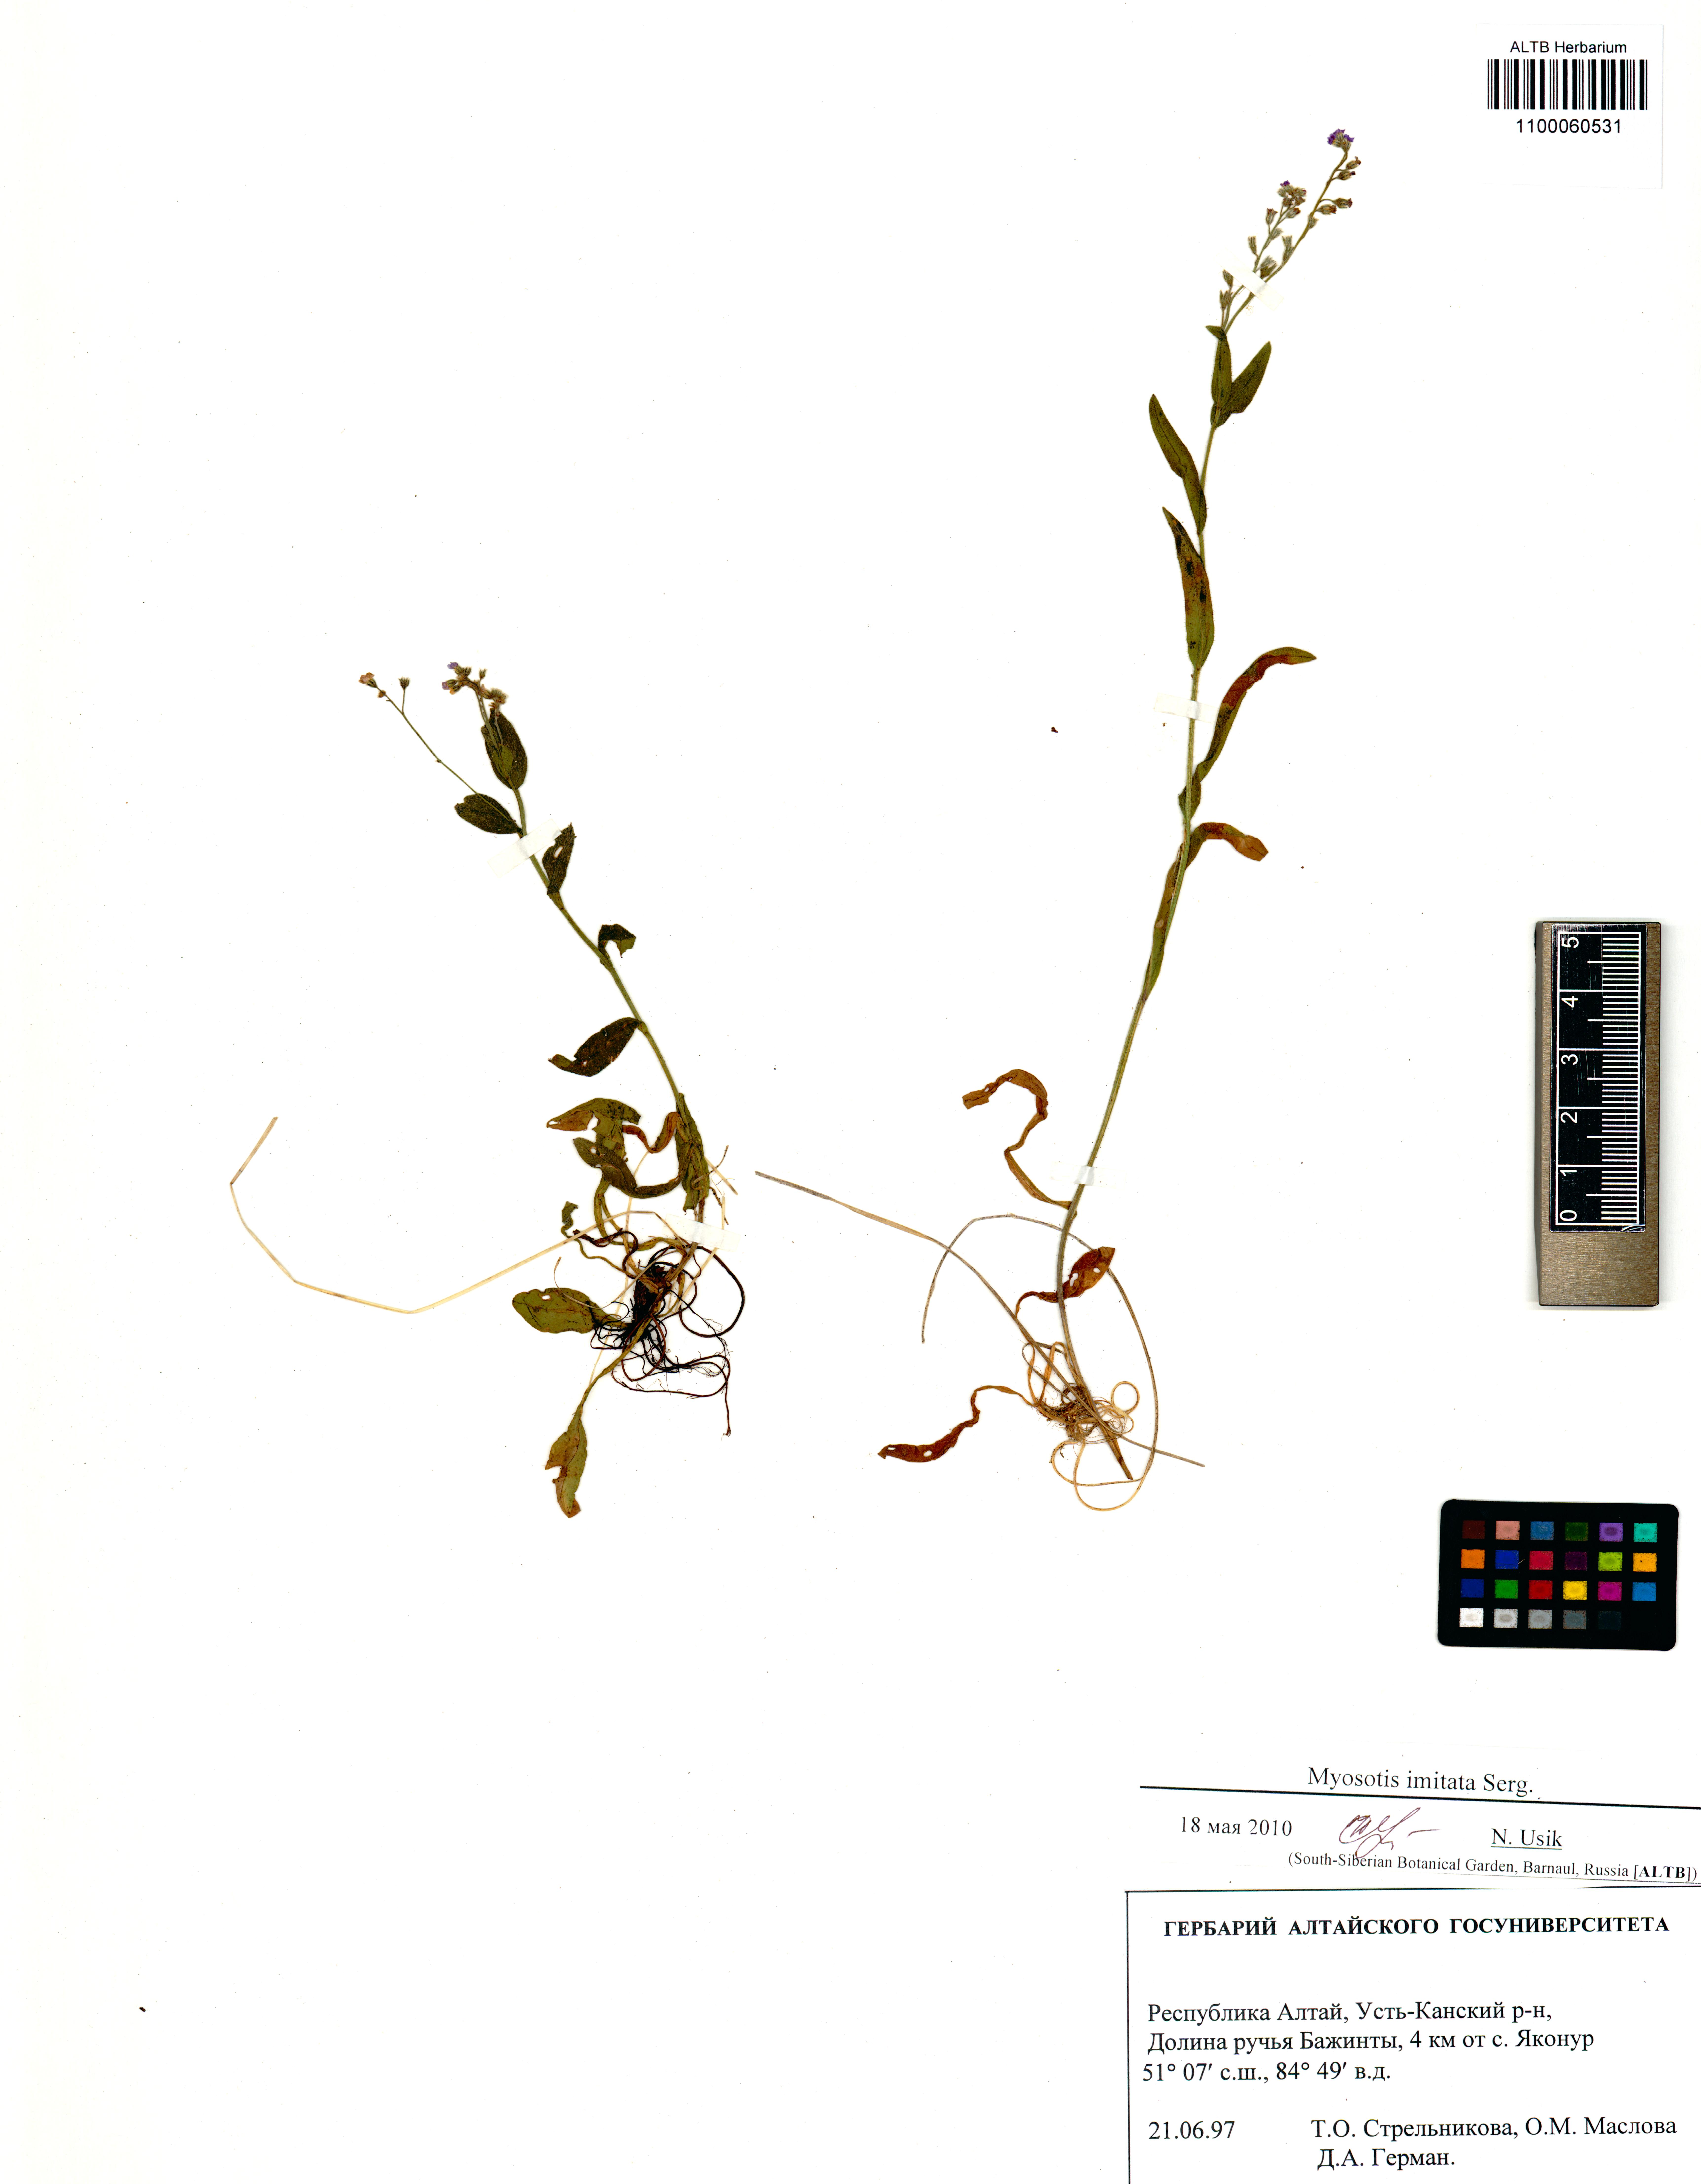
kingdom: Plantae
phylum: Tracheophyta
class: Magnoliopsida
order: Boraginales
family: Boraginaceae
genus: Myosotis
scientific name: Myosotis imitata
